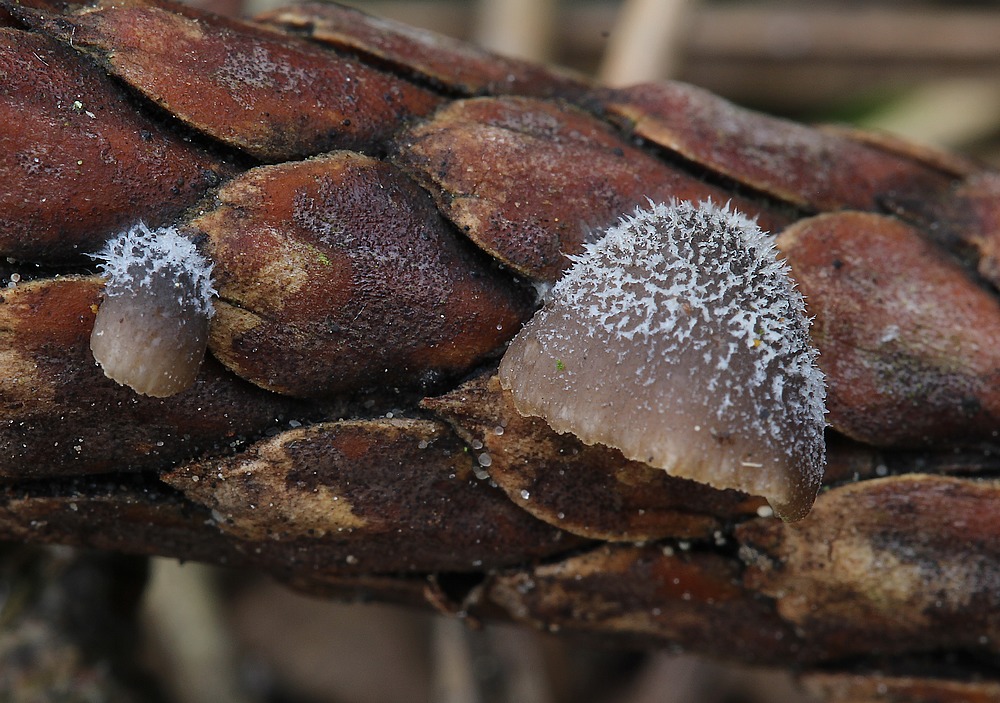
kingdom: Fungi
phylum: Basidiomycota
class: Agaricomycetes
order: Agaricales
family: Pleurotaceae
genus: Hohenbuehelia
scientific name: Hohenbuehelia fluxilis
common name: pile-filthat
